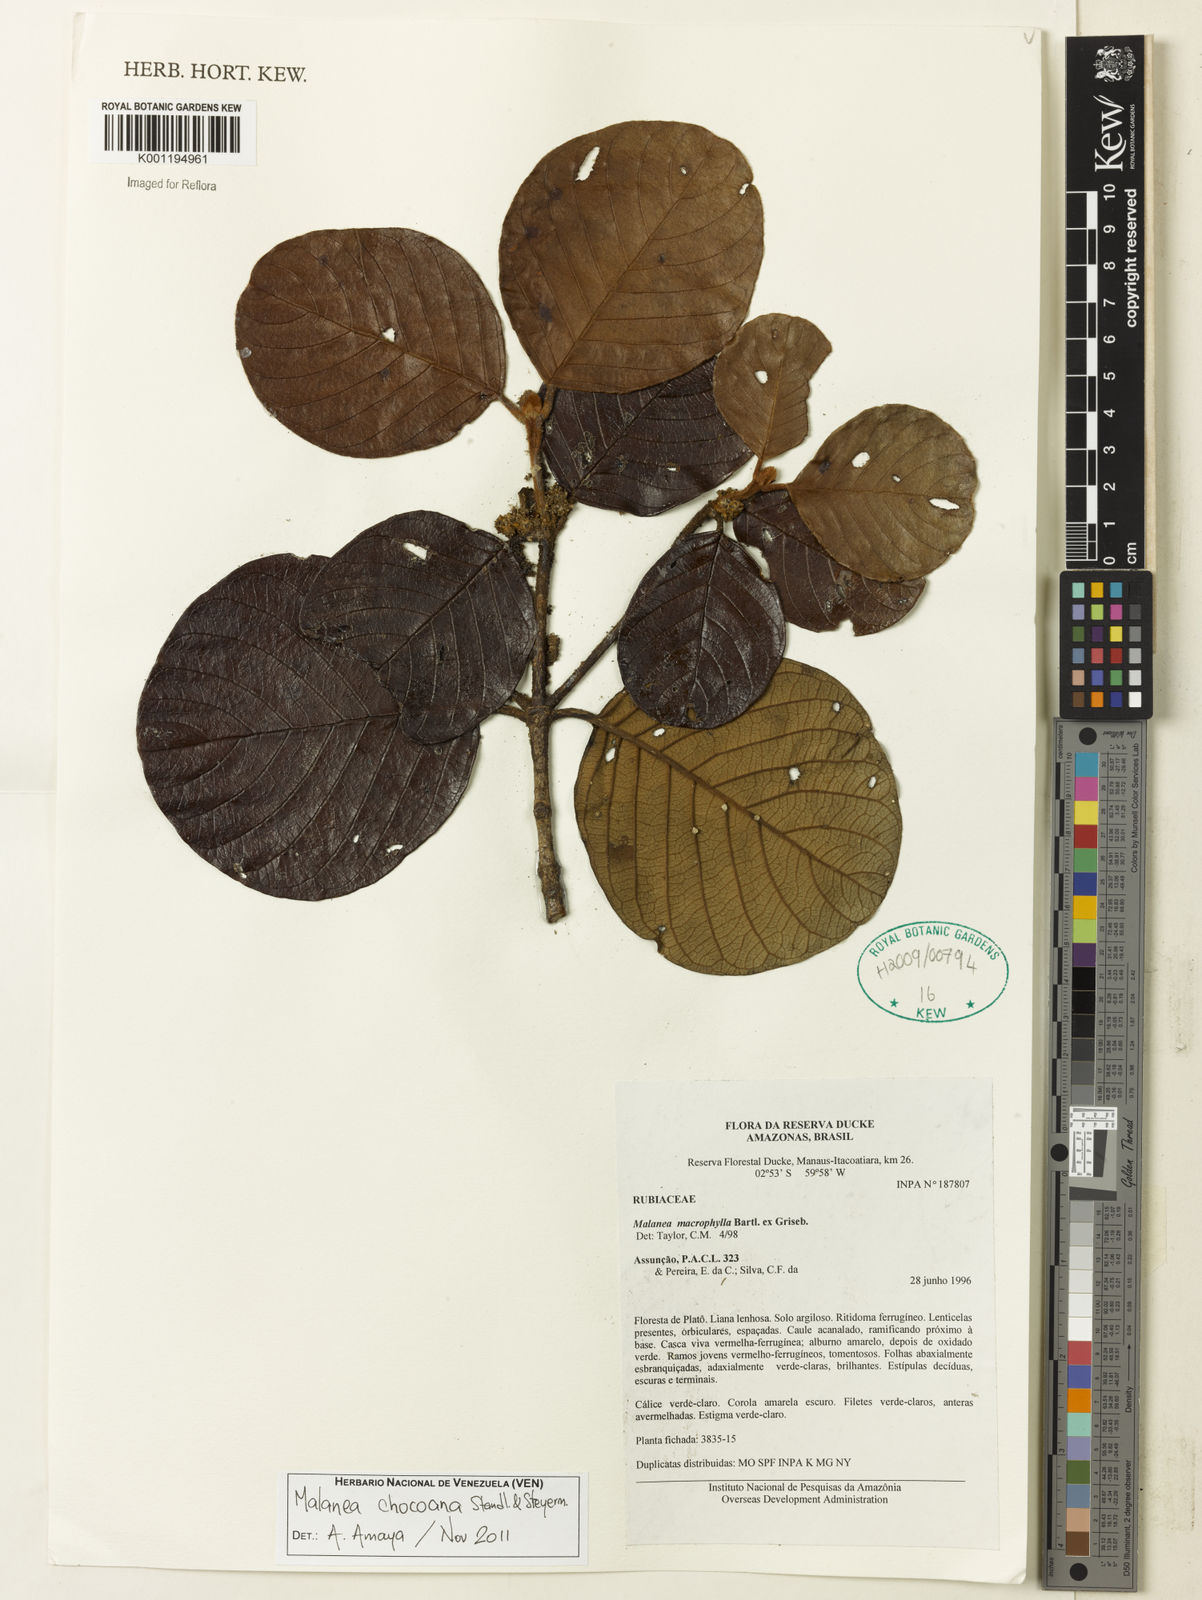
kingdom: Plantae
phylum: Tracheophyta
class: Magnoliopsida
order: Gentianales
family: Rubiaceae
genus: Malanea
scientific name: Malanea chocoana
